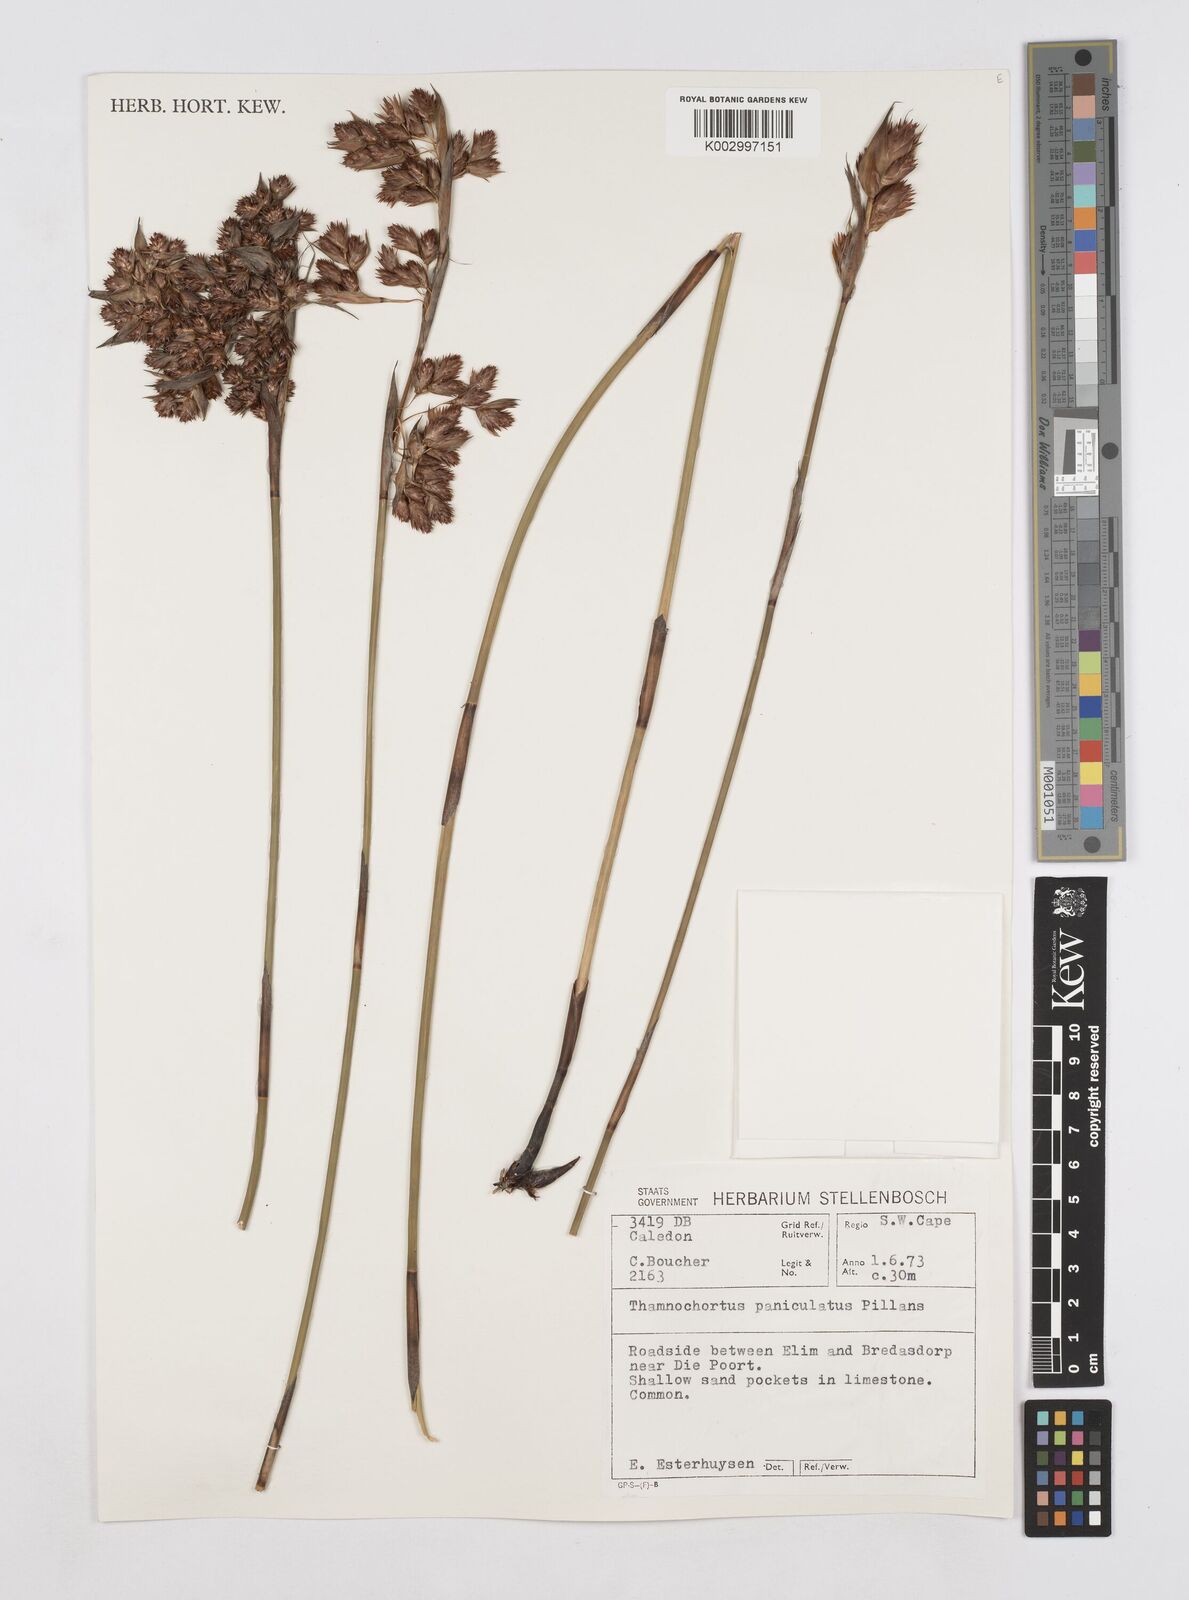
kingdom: Plantae
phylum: Tracheophyta
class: Liliopsida
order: Poales
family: Restionaceae
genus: Thamnochortus
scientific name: Thamnochortus paniculatus
